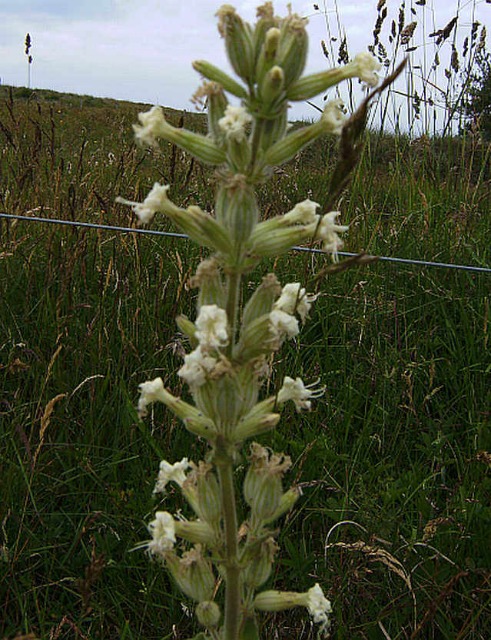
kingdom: Plantae
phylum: Tracheophyta
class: Magnoliopsida
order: Caryophyllales
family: Caryophyllaceae
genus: Silene
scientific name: Silene viscosa
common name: Klæbrig limurt
